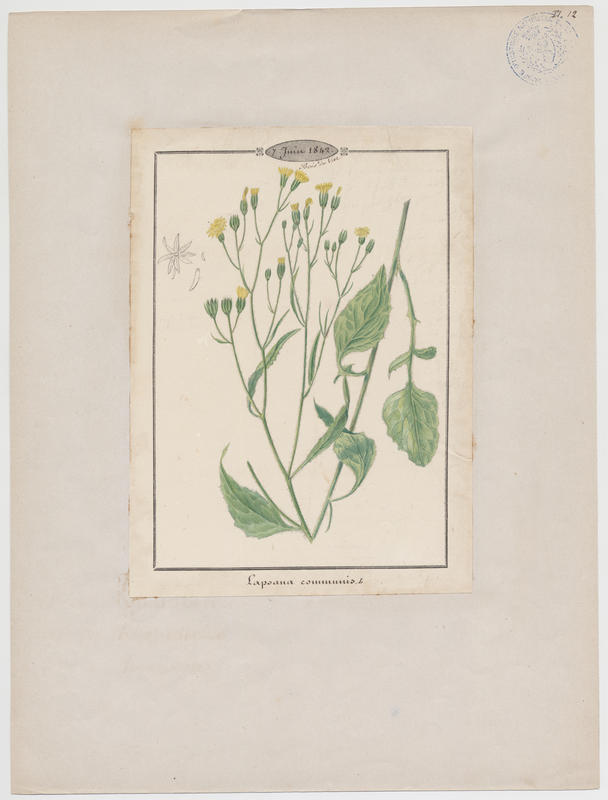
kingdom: Plantae
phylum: Tracheophyta
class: Magnoliopsida
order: Asterales
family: Asteraceae
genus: Lapsana
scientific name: Lapsana communis
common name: Nipplewort
